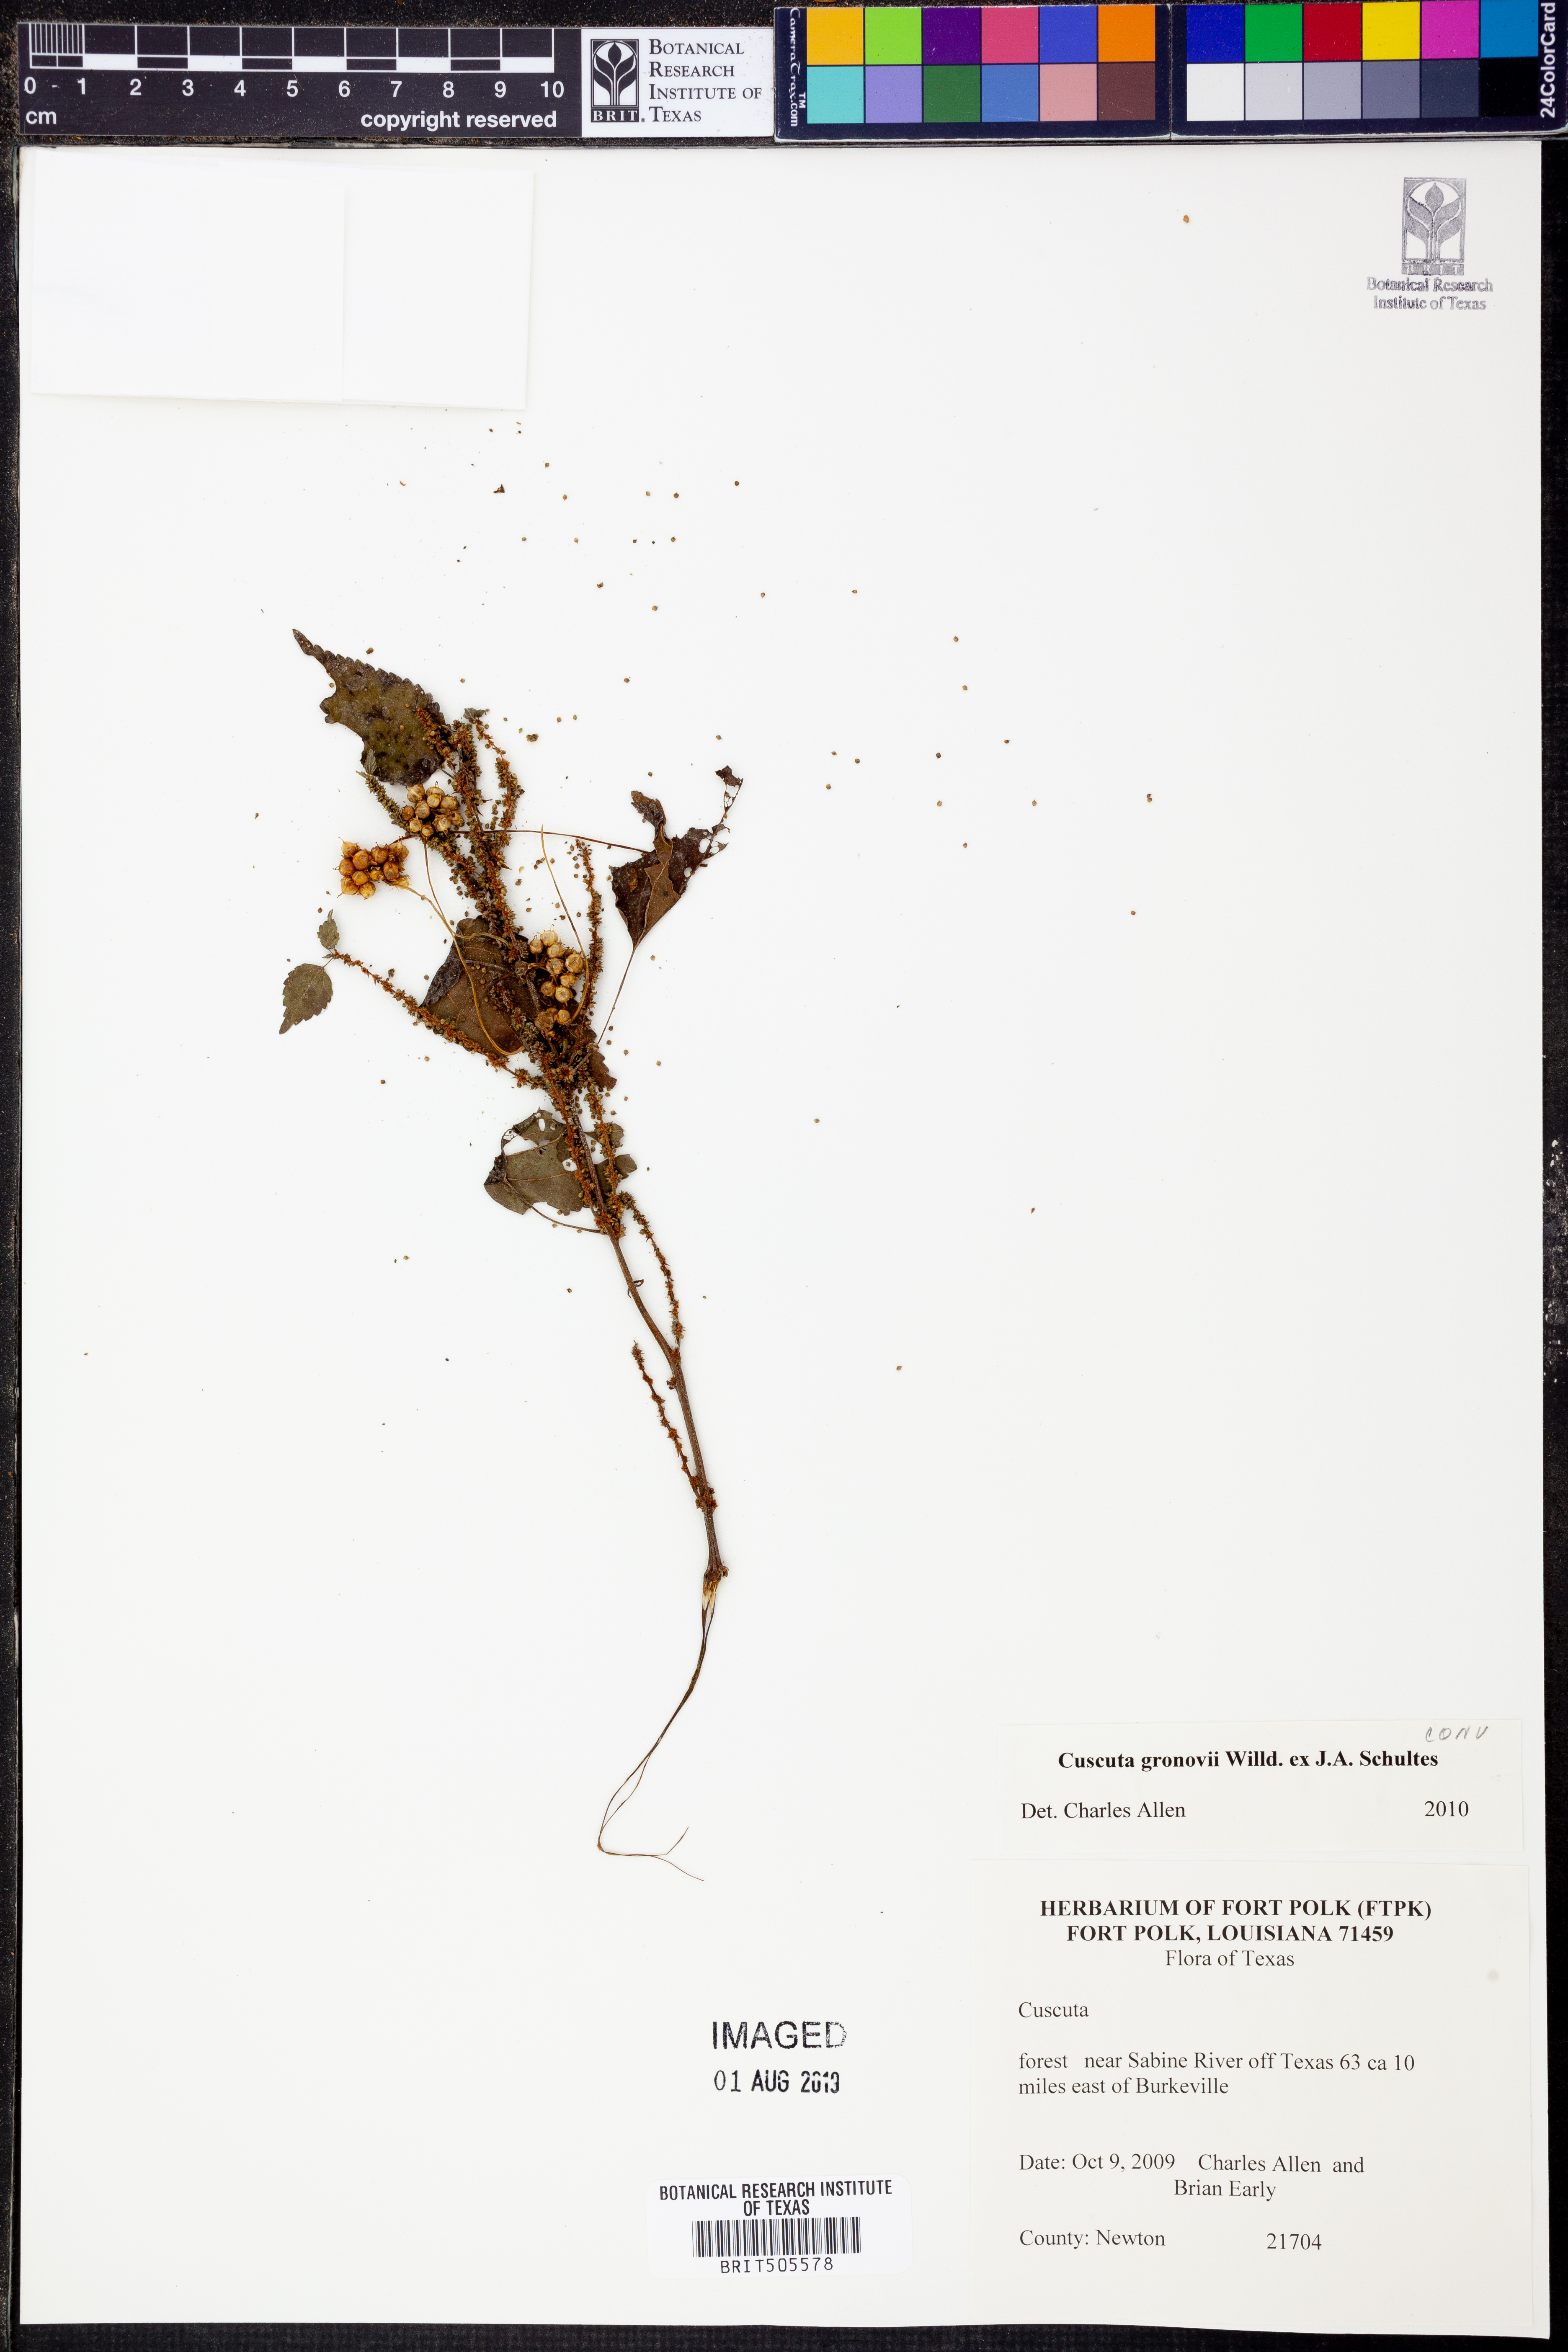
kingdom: Plantae
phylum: Tracheophyta
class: Magnoliopsida
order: Solanales
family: Convolvulaceae
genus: Cuscuta
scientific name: Cuscuta gronovii
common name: Common dodder
